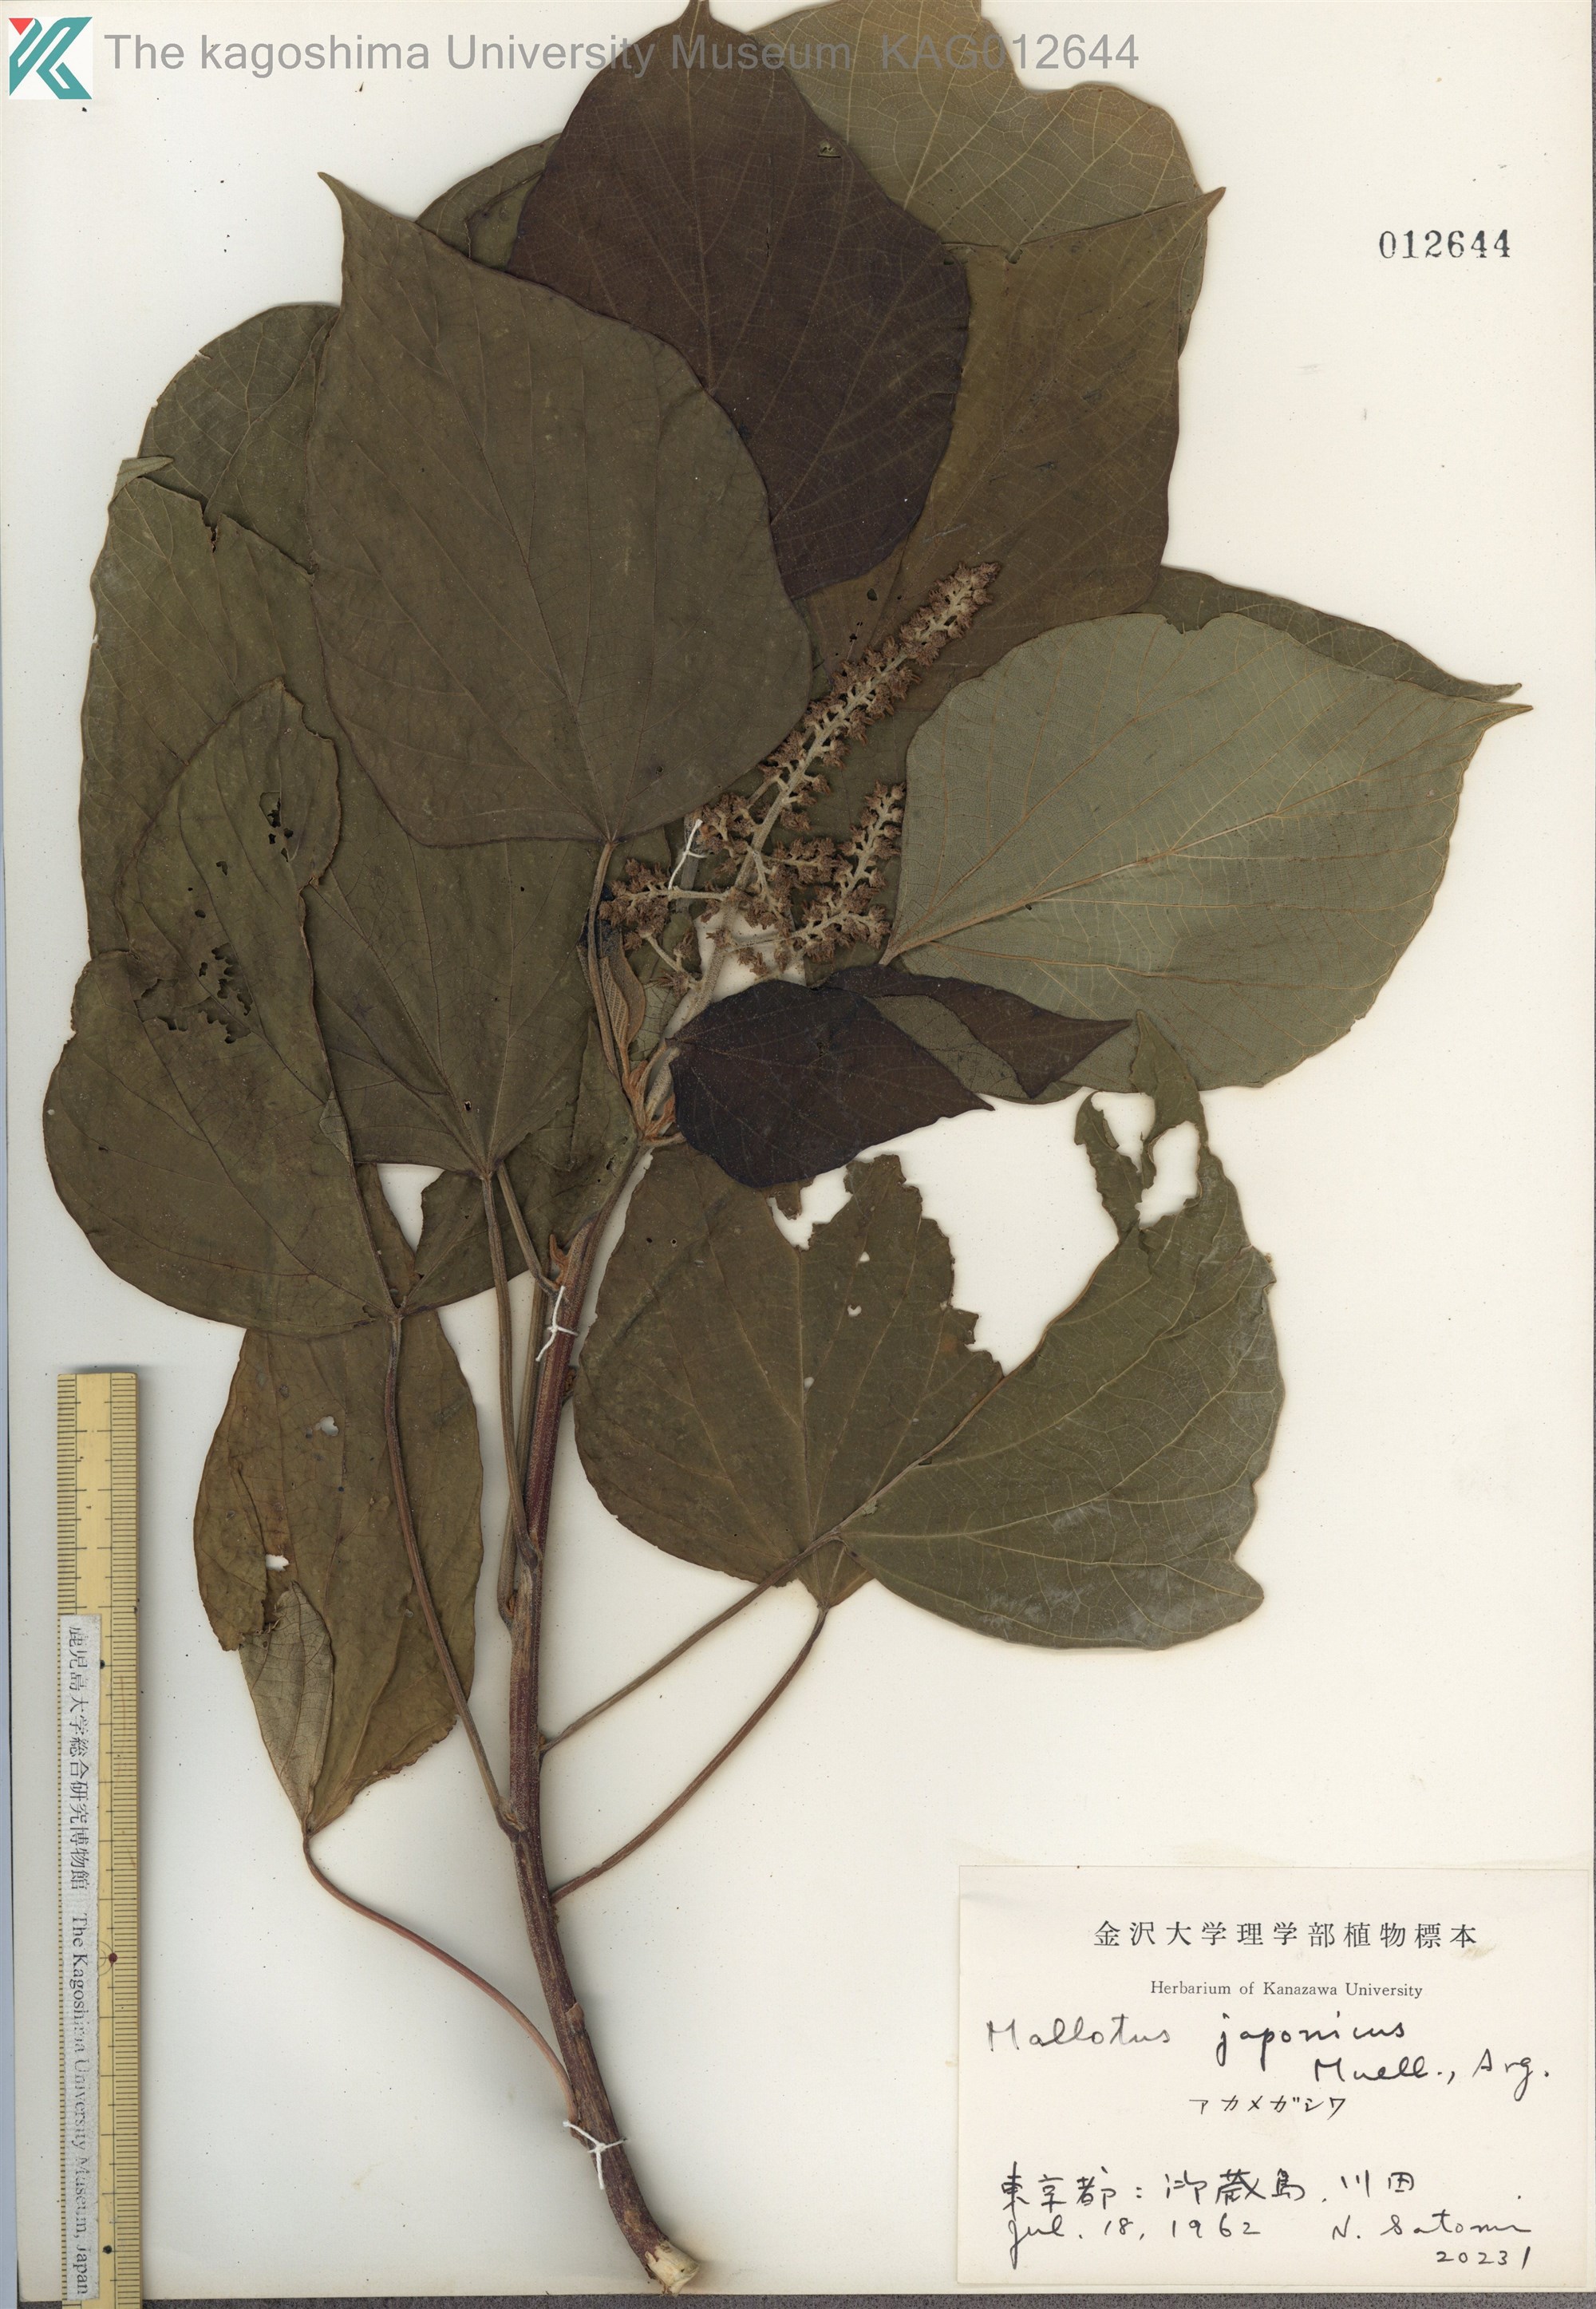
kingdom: Plantae
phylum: Tracheophyta
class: Magnoliopsida
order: Malpighiales
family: Euphorbiaceae
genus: Mallotus
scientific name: Mallotus japonicus
